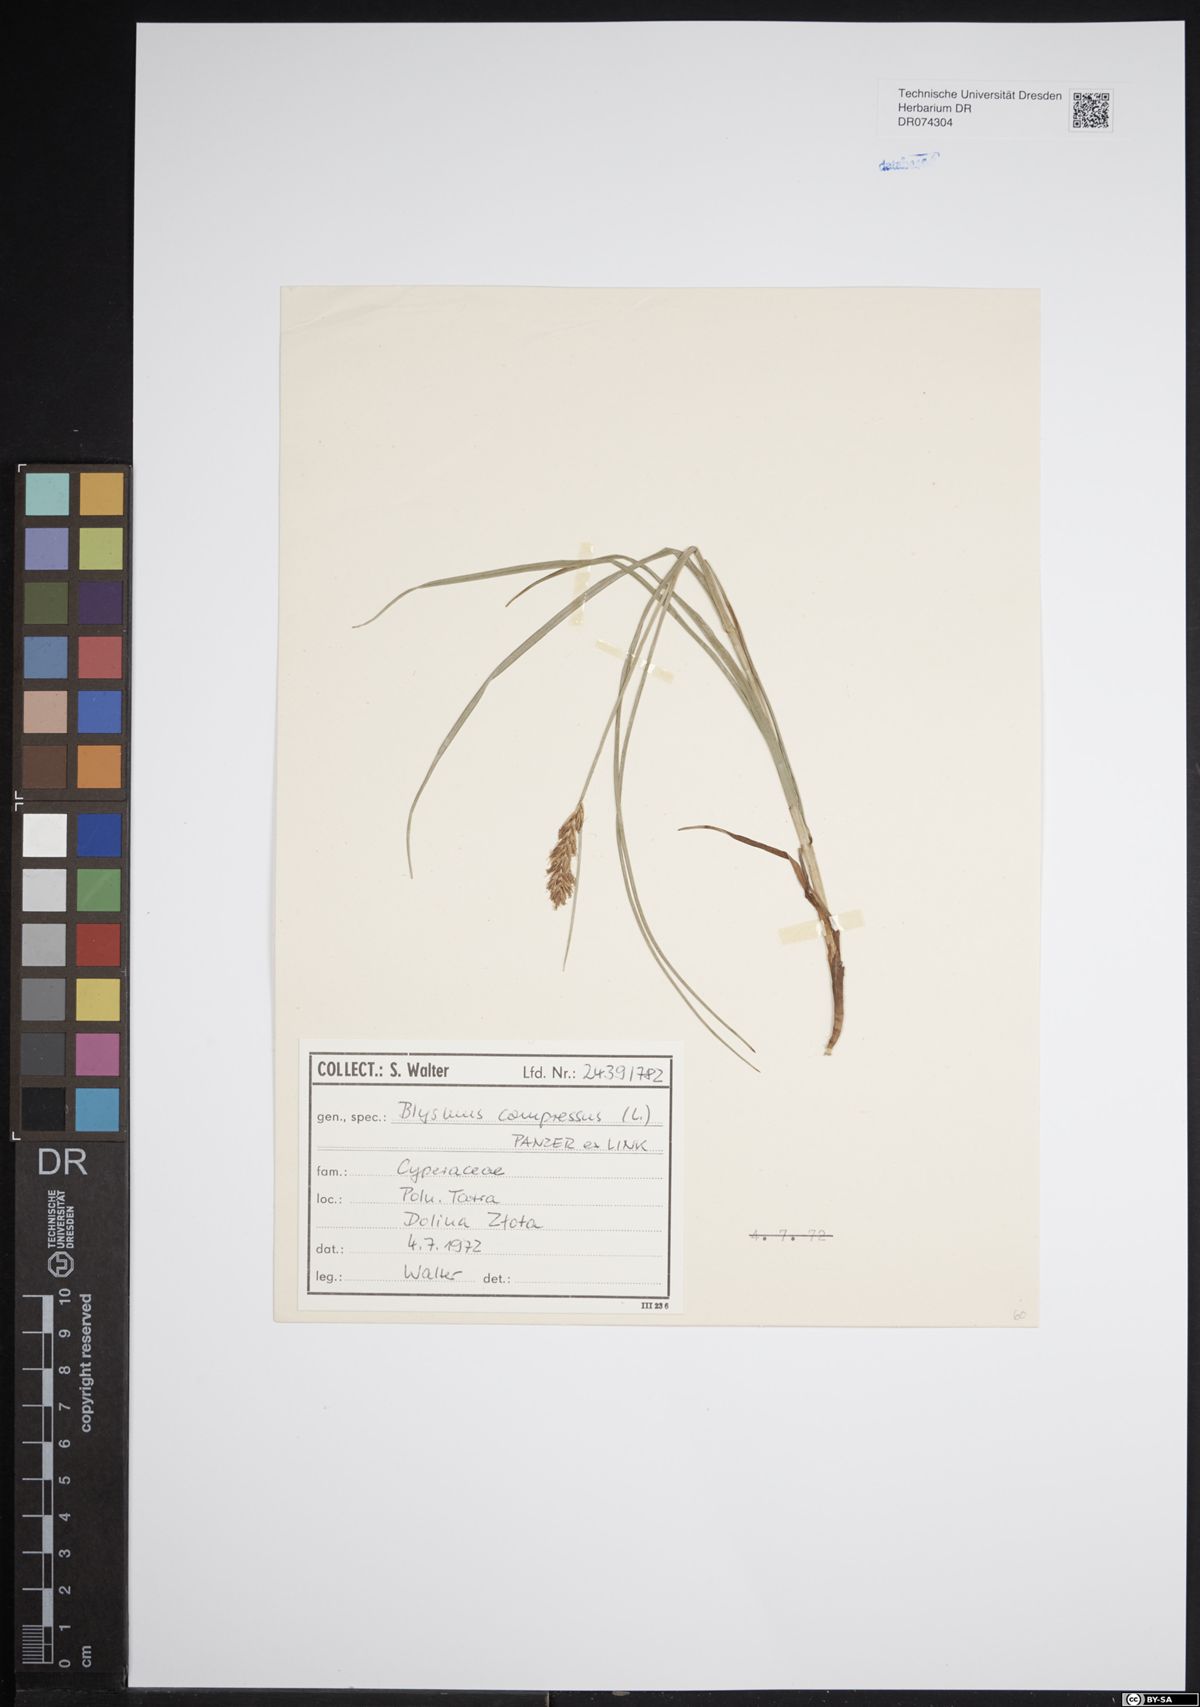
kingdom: Plantae
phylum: Tracheophyta
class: Liliopsida
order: Poales
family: Cyperaceae
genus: Blysmus
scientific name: Blysmus compressus
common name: Flat-sedge
